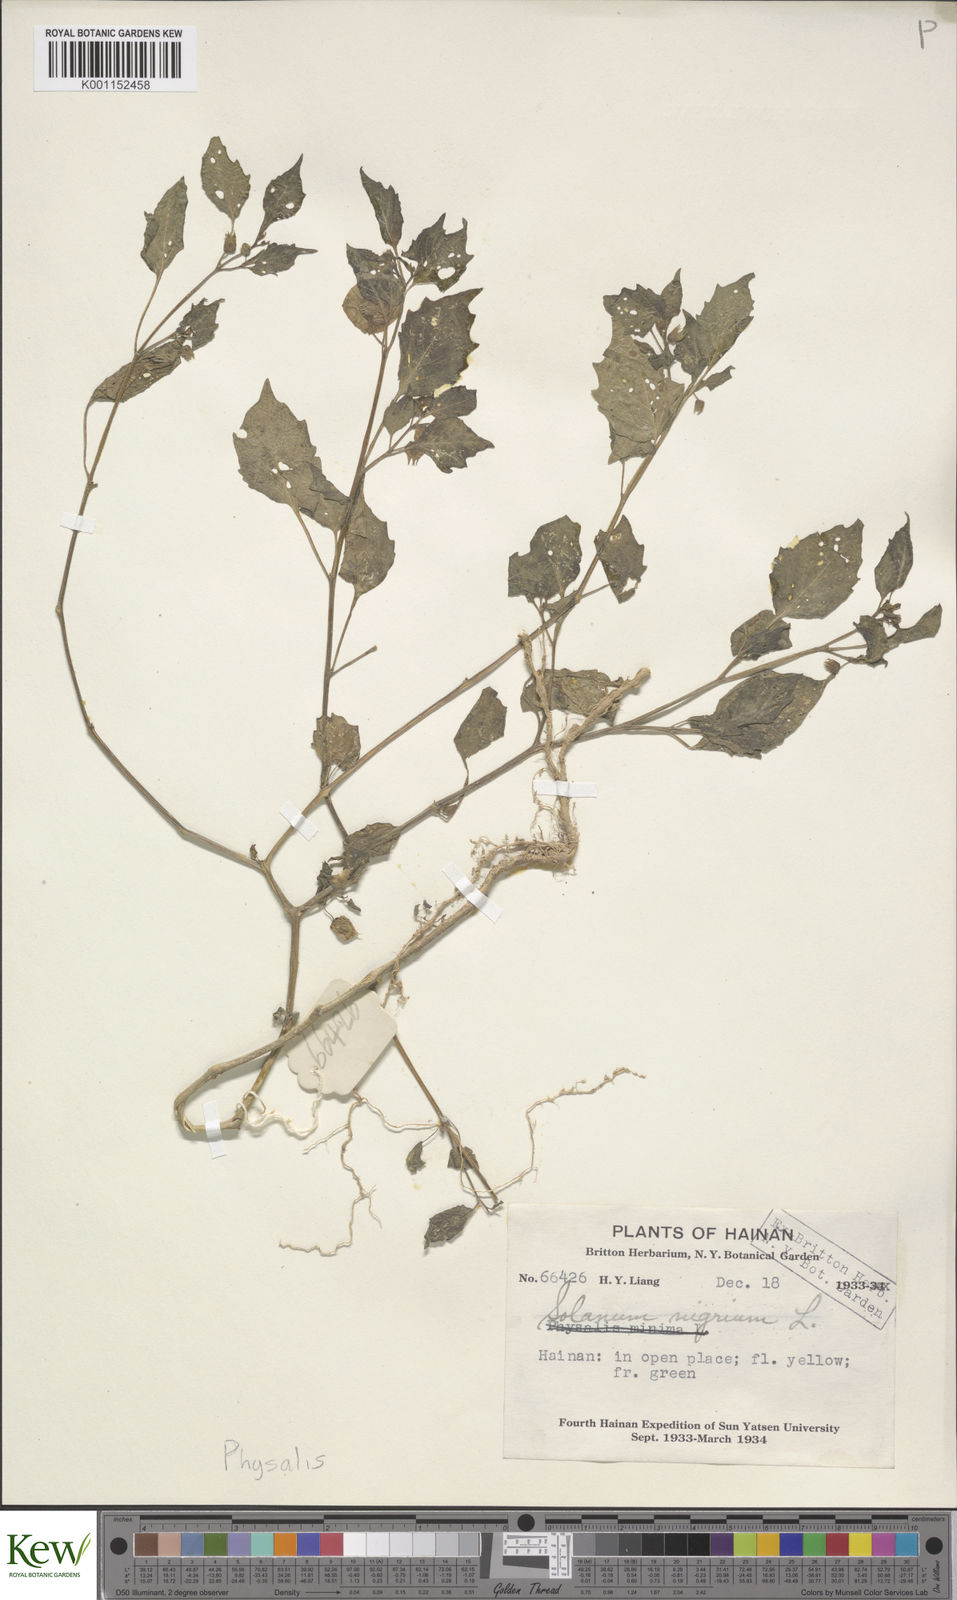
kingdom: Plantae
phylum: Tracheophyta
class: Magnoliopsida
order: Solanales
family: Solanaceae
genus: Solanum
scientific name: Solanum nigrum
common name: Black nightshade
